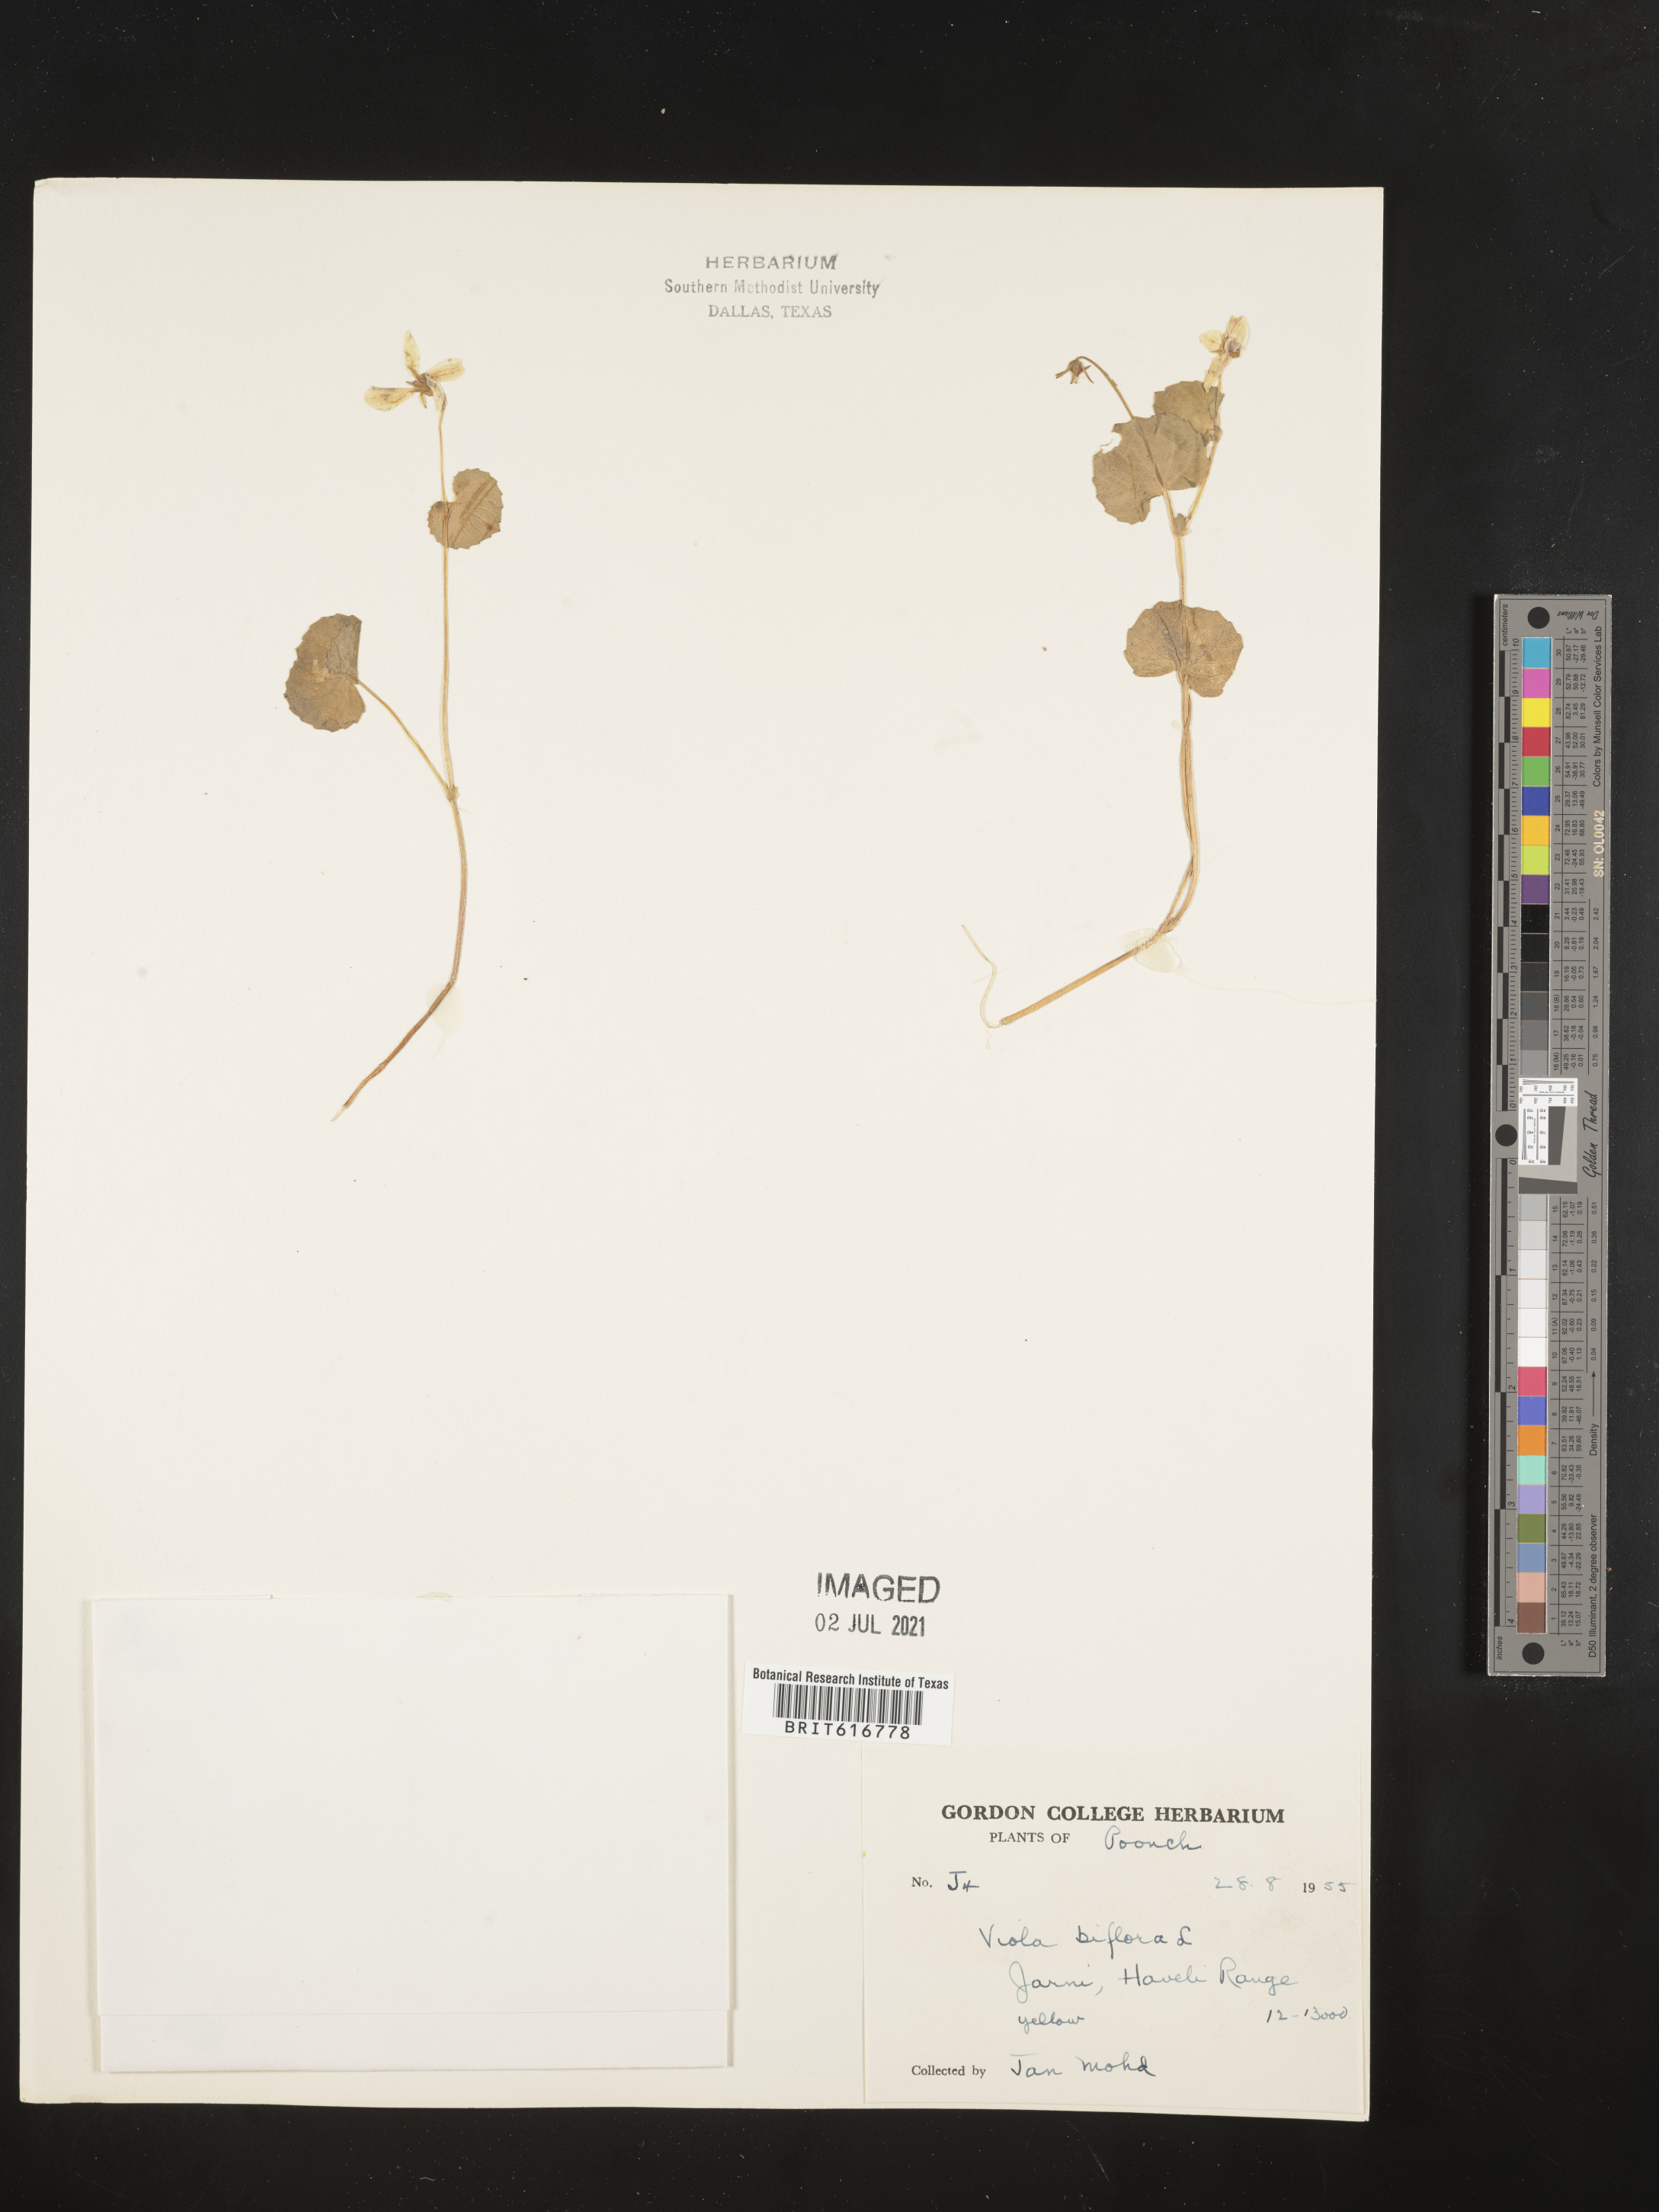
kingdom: Plantae
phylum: Tracheophyta
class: Magnoliopsida
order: Malpighiales
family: Violaceae
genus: Viola
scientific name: Viola biflora
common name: Alpine yellow violet
